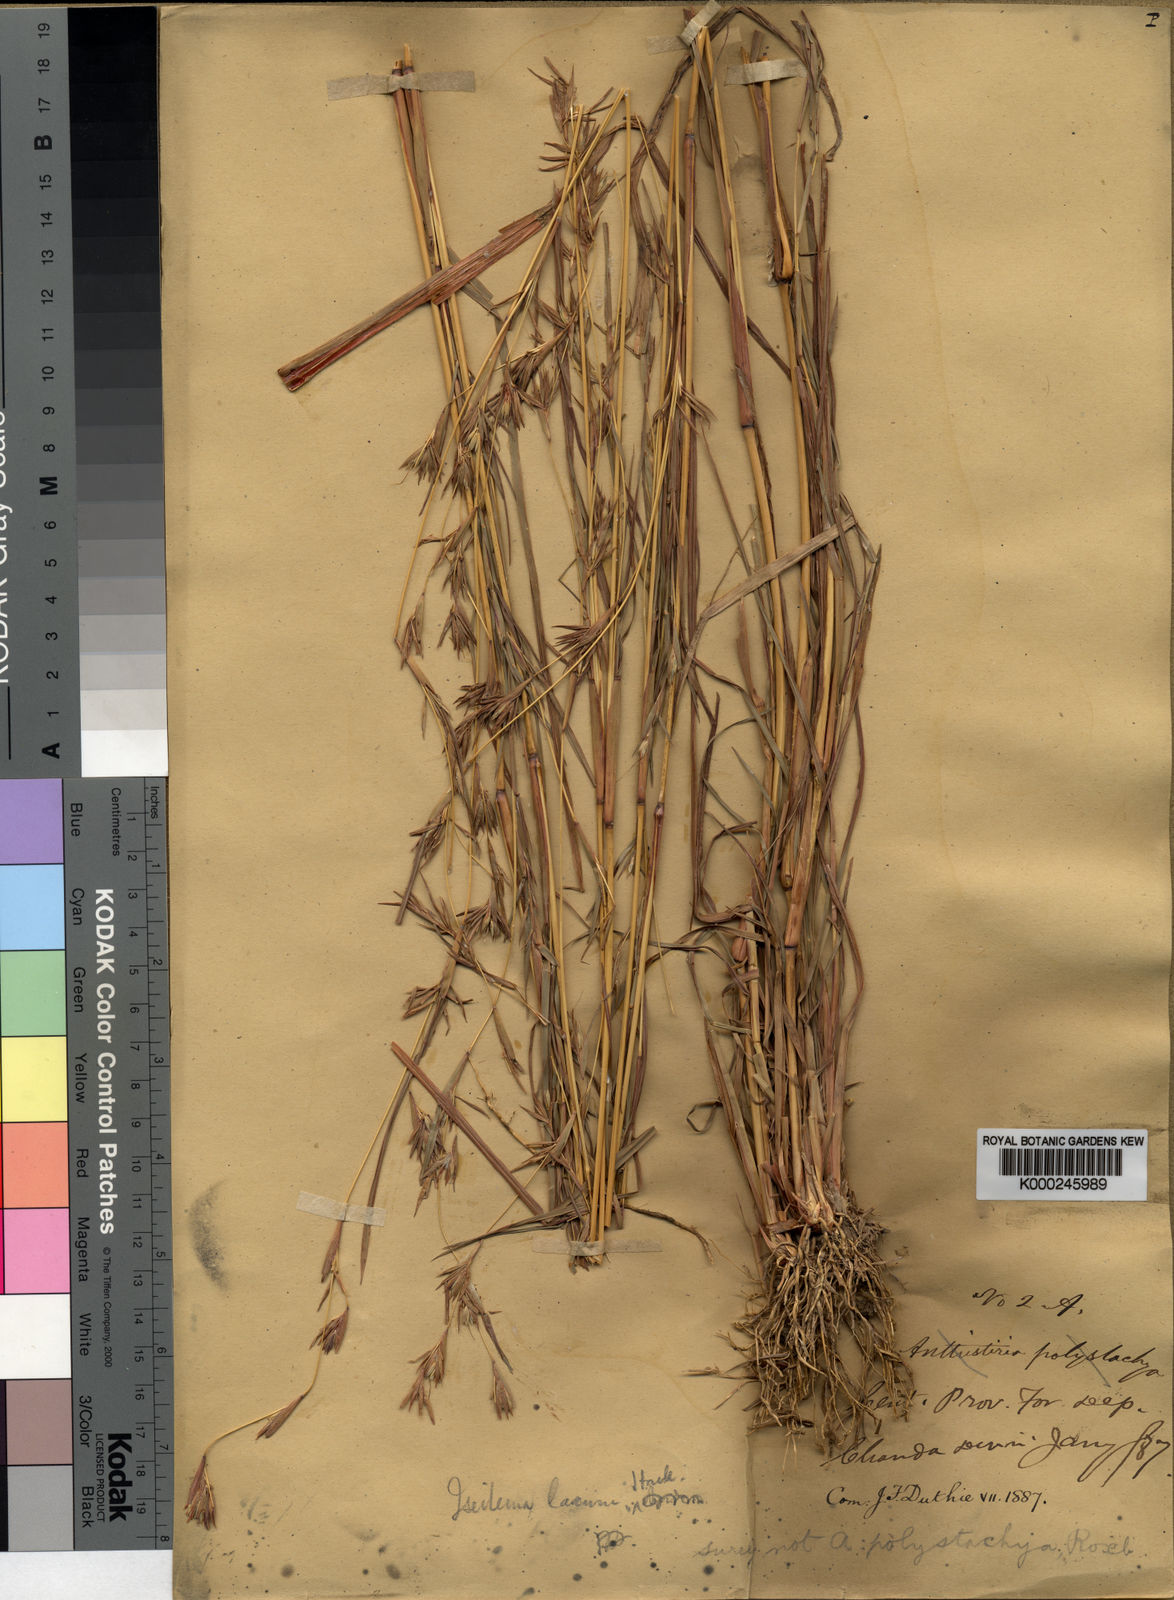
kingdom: Plantae
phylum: Tracheophyta
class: Liliopsida
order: Poales
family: Poaceae
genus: Iseilema
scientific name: Iseilema prostratum
